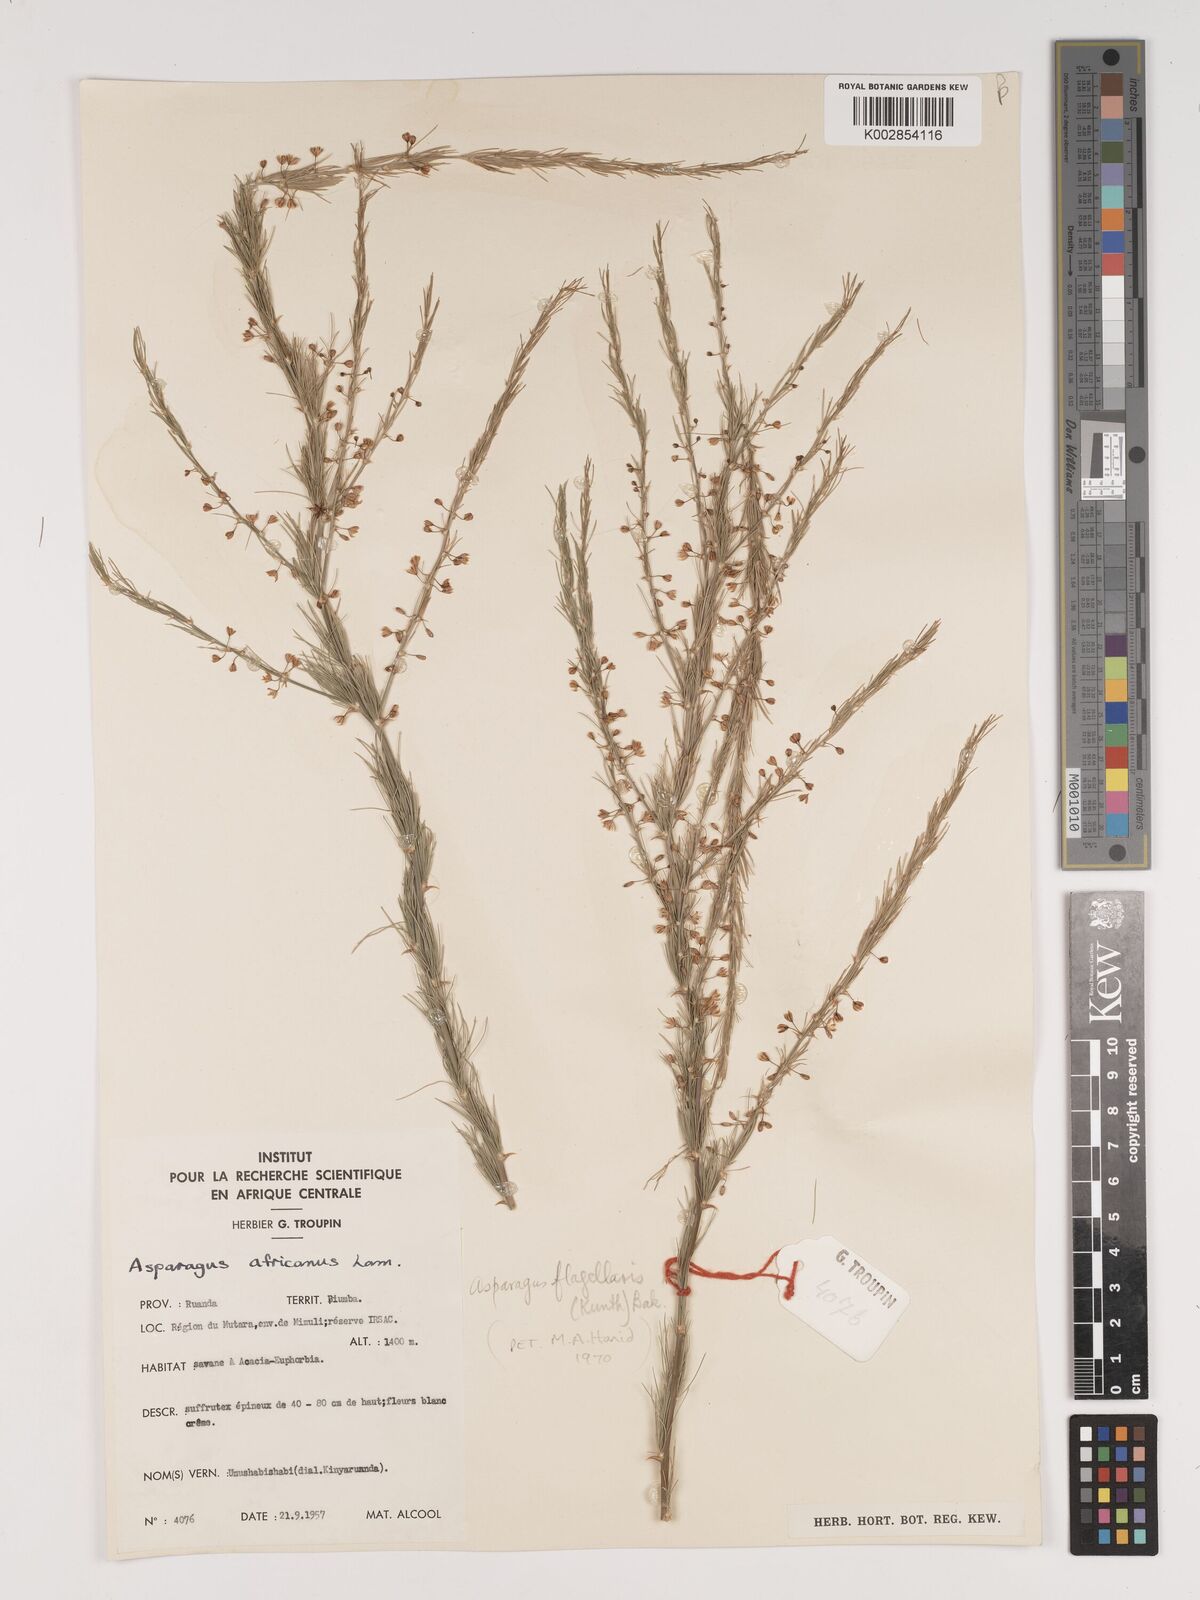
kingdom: Plantae
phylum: Tracheophyta
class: Liliopsida
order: Asparagales
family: Asparagaceae
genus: Asparagus
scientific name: Asparagus flagellaris
